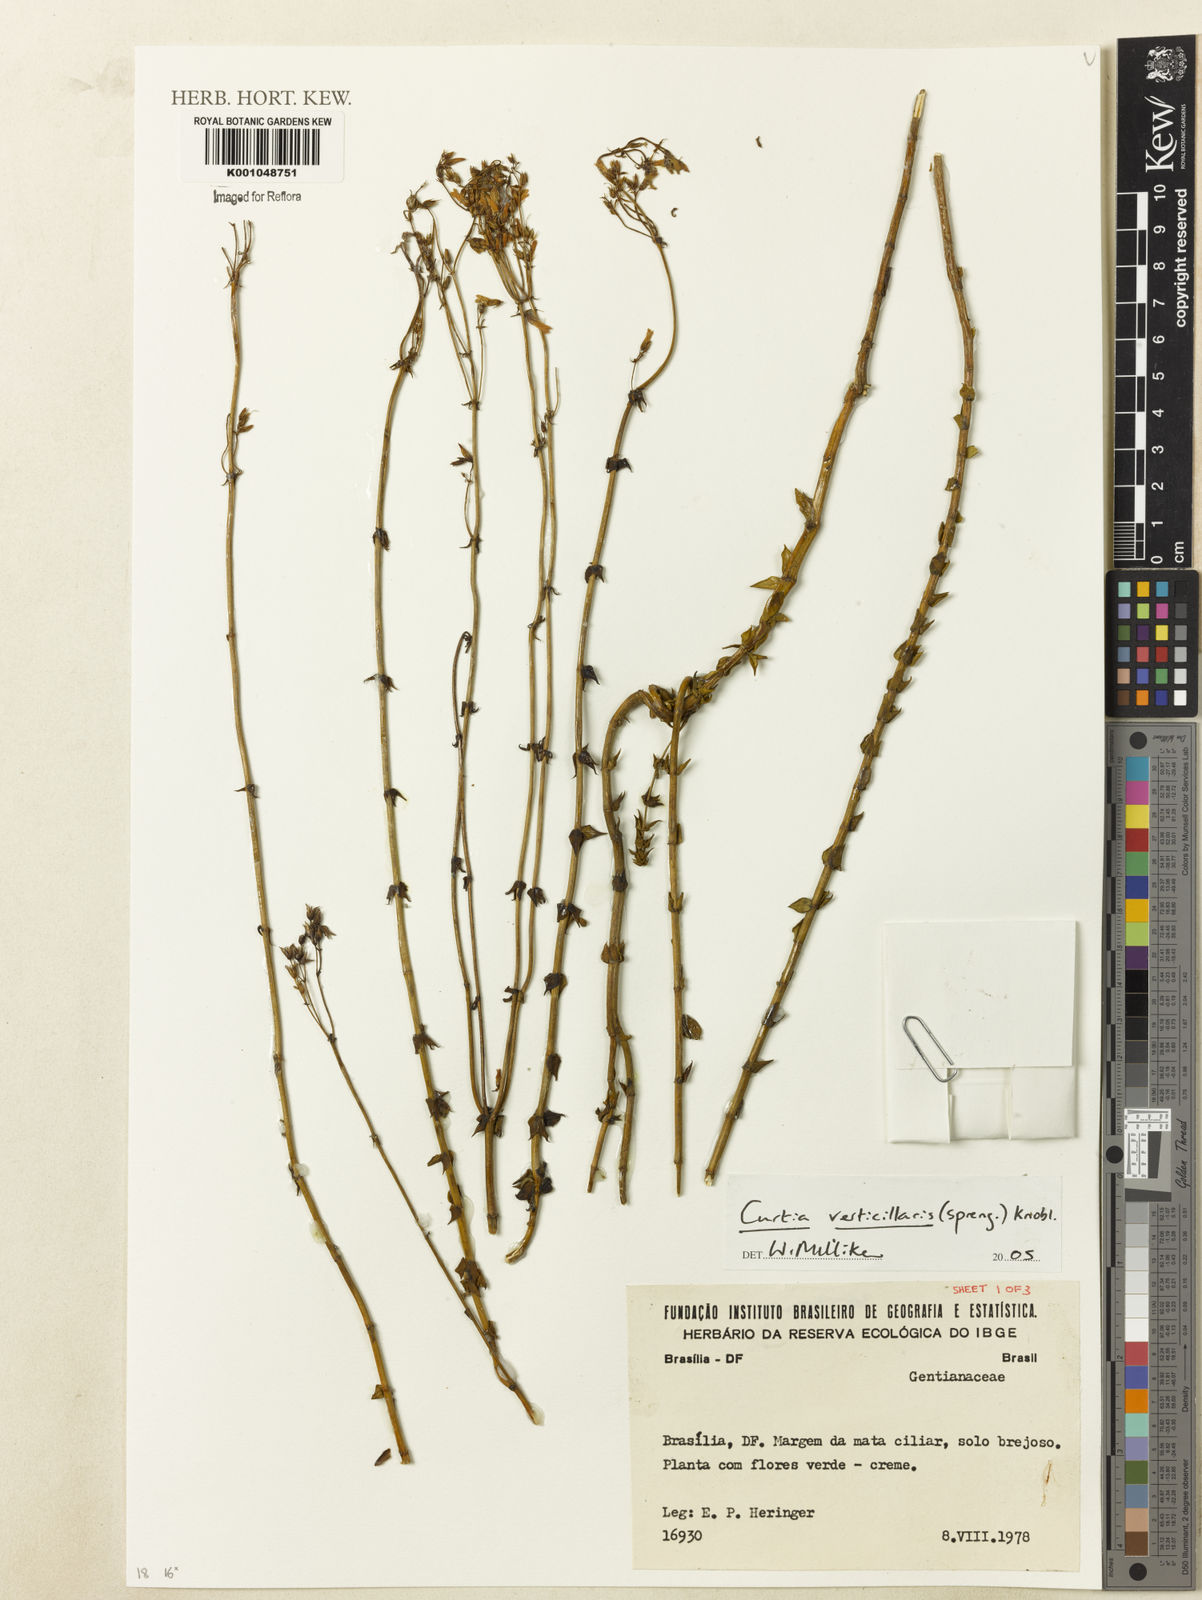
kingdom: Plantae
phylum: Tracheophyta
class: Magnoliopsida
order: Gentianales
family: Gentianaceae
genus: Curtia
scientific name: Curtia verticillaris
